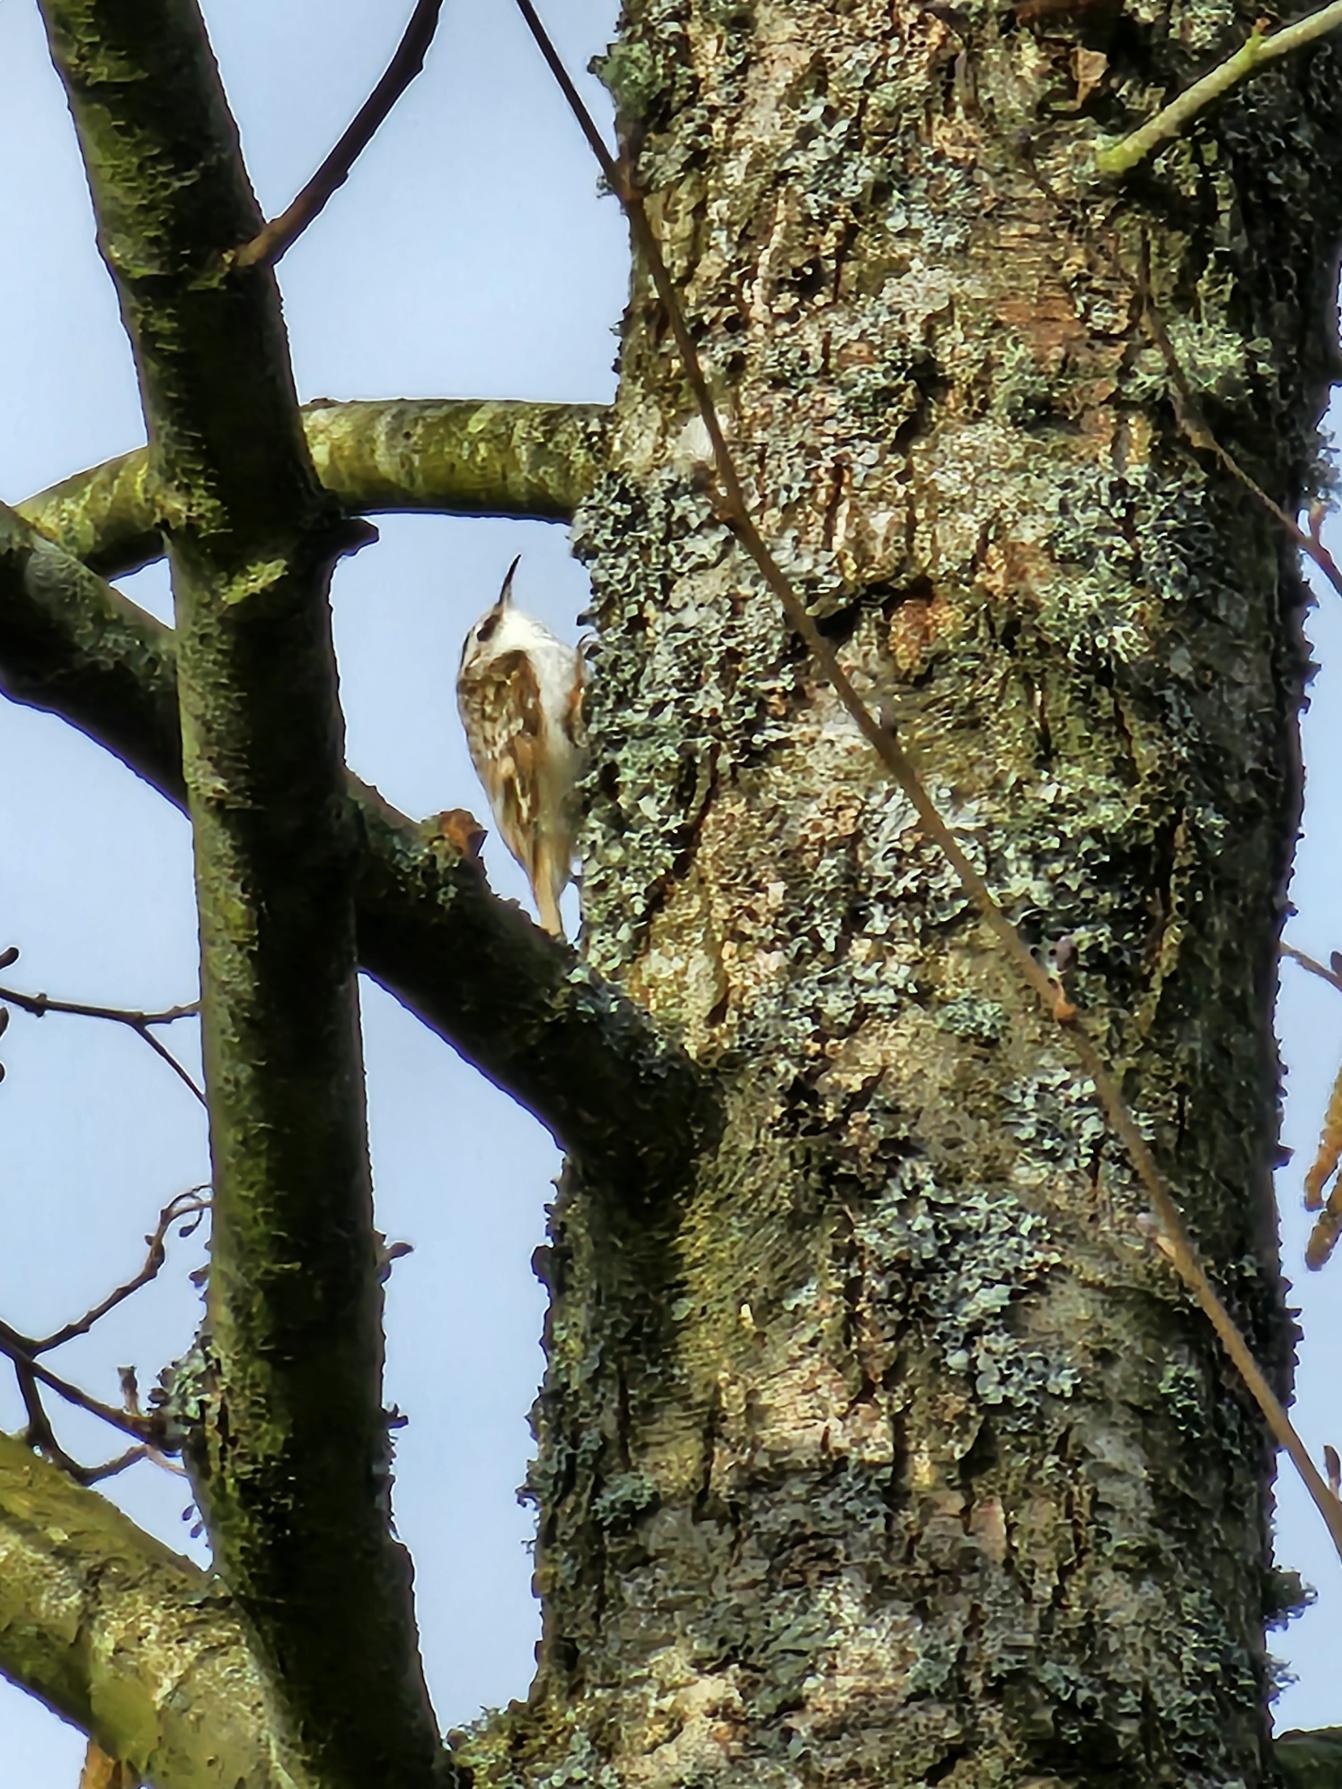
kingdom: Animalia
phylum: Chordata
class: Aves
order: Passeriformes
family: Certhiidae
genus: Certhia
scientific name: Certhia familiaris
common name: Træløber
